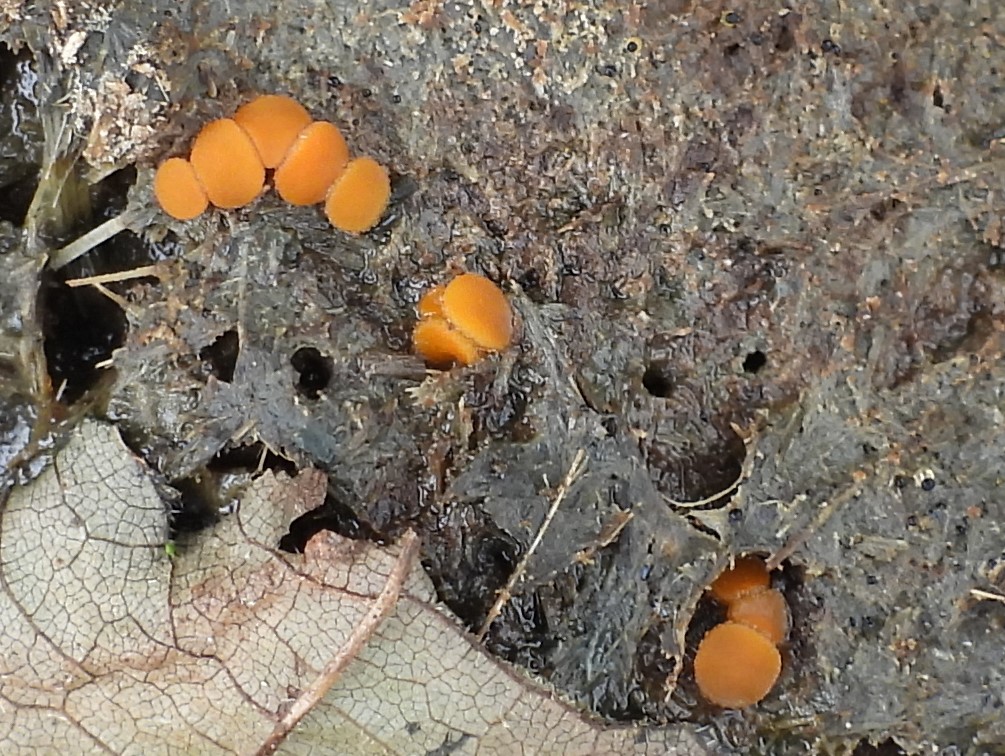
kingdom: Fungi
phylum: Ascomycota
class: Pezizomycetes
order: Pezizales
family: Pyronemataceae
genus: Cheilymenia
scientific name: Cheilymenia granulata
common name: møgbæger
